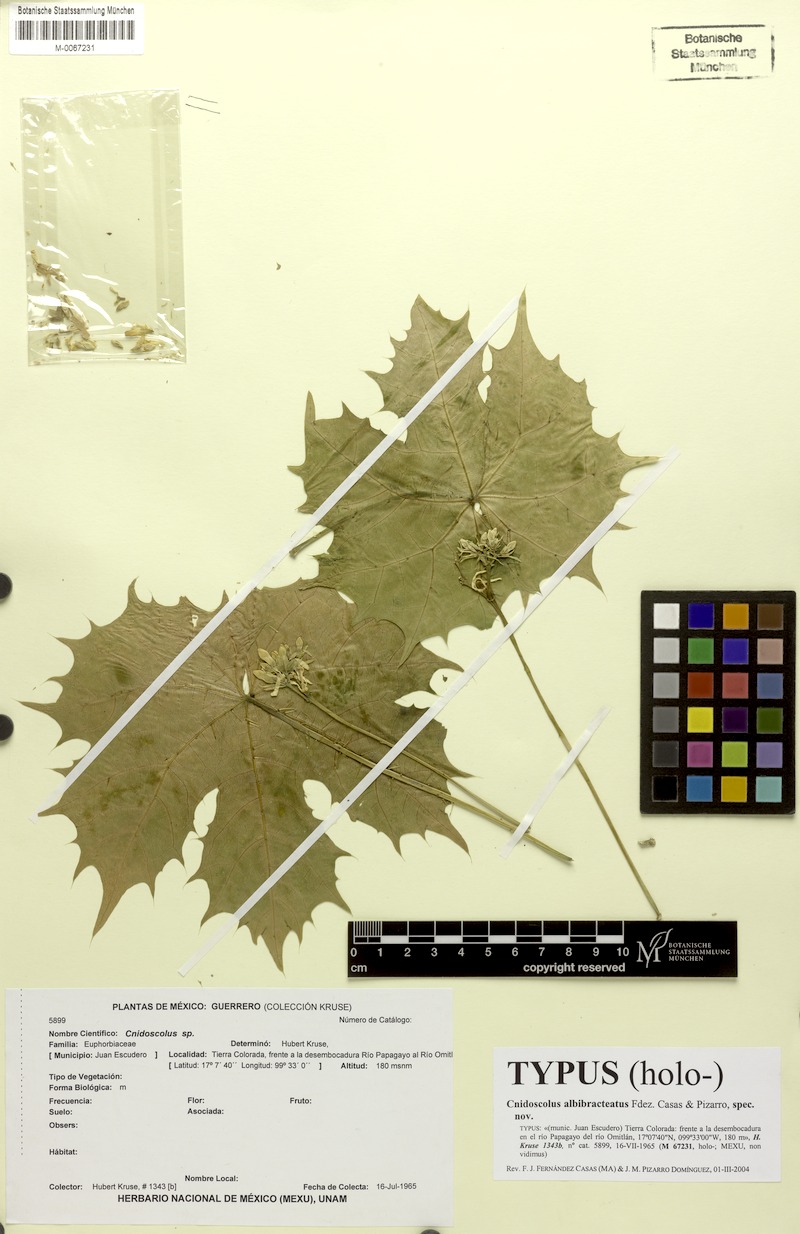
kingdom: Plantae
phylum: Tracheophyta
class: Magnoliopsida
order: Malpighiales
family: Euphorbiaceae
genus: Cnidoscolus
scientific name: Cnidoscolus albibracteatus
